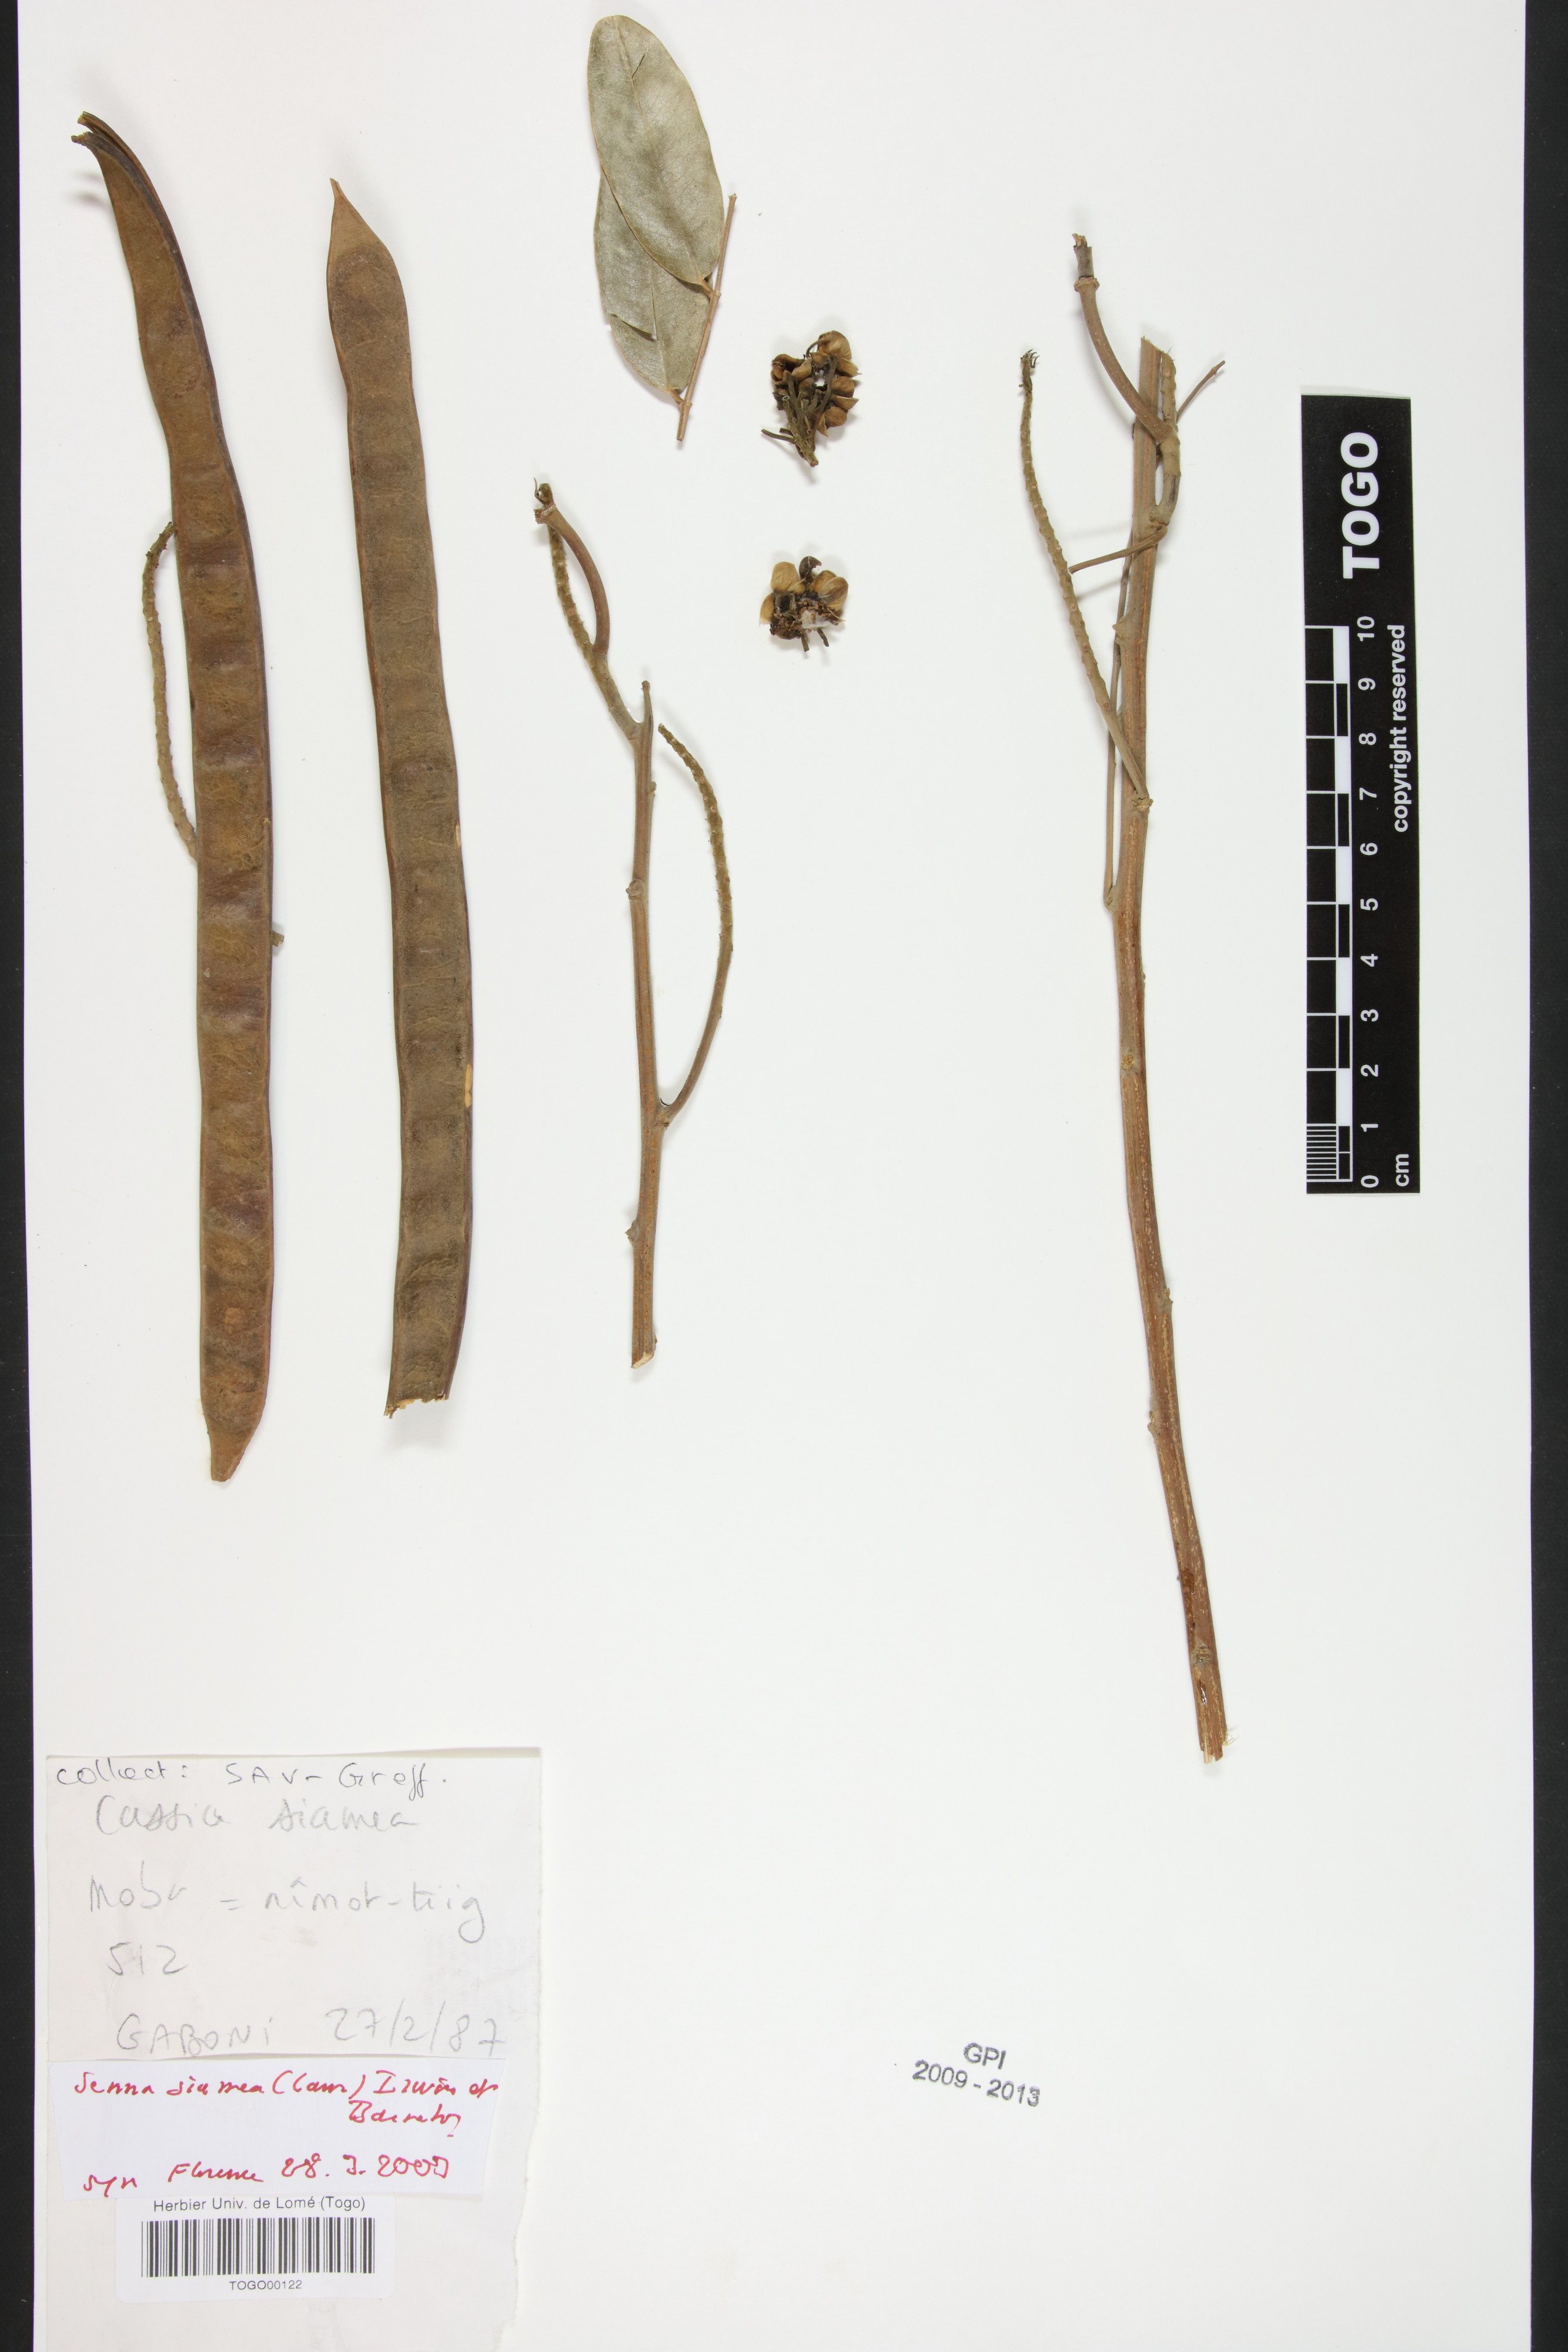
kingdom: Plantae
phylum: Tracheophyta
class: Magnoliopsida
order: Fabales
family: Fabaceae
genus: Senna
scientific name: Senna siamea
